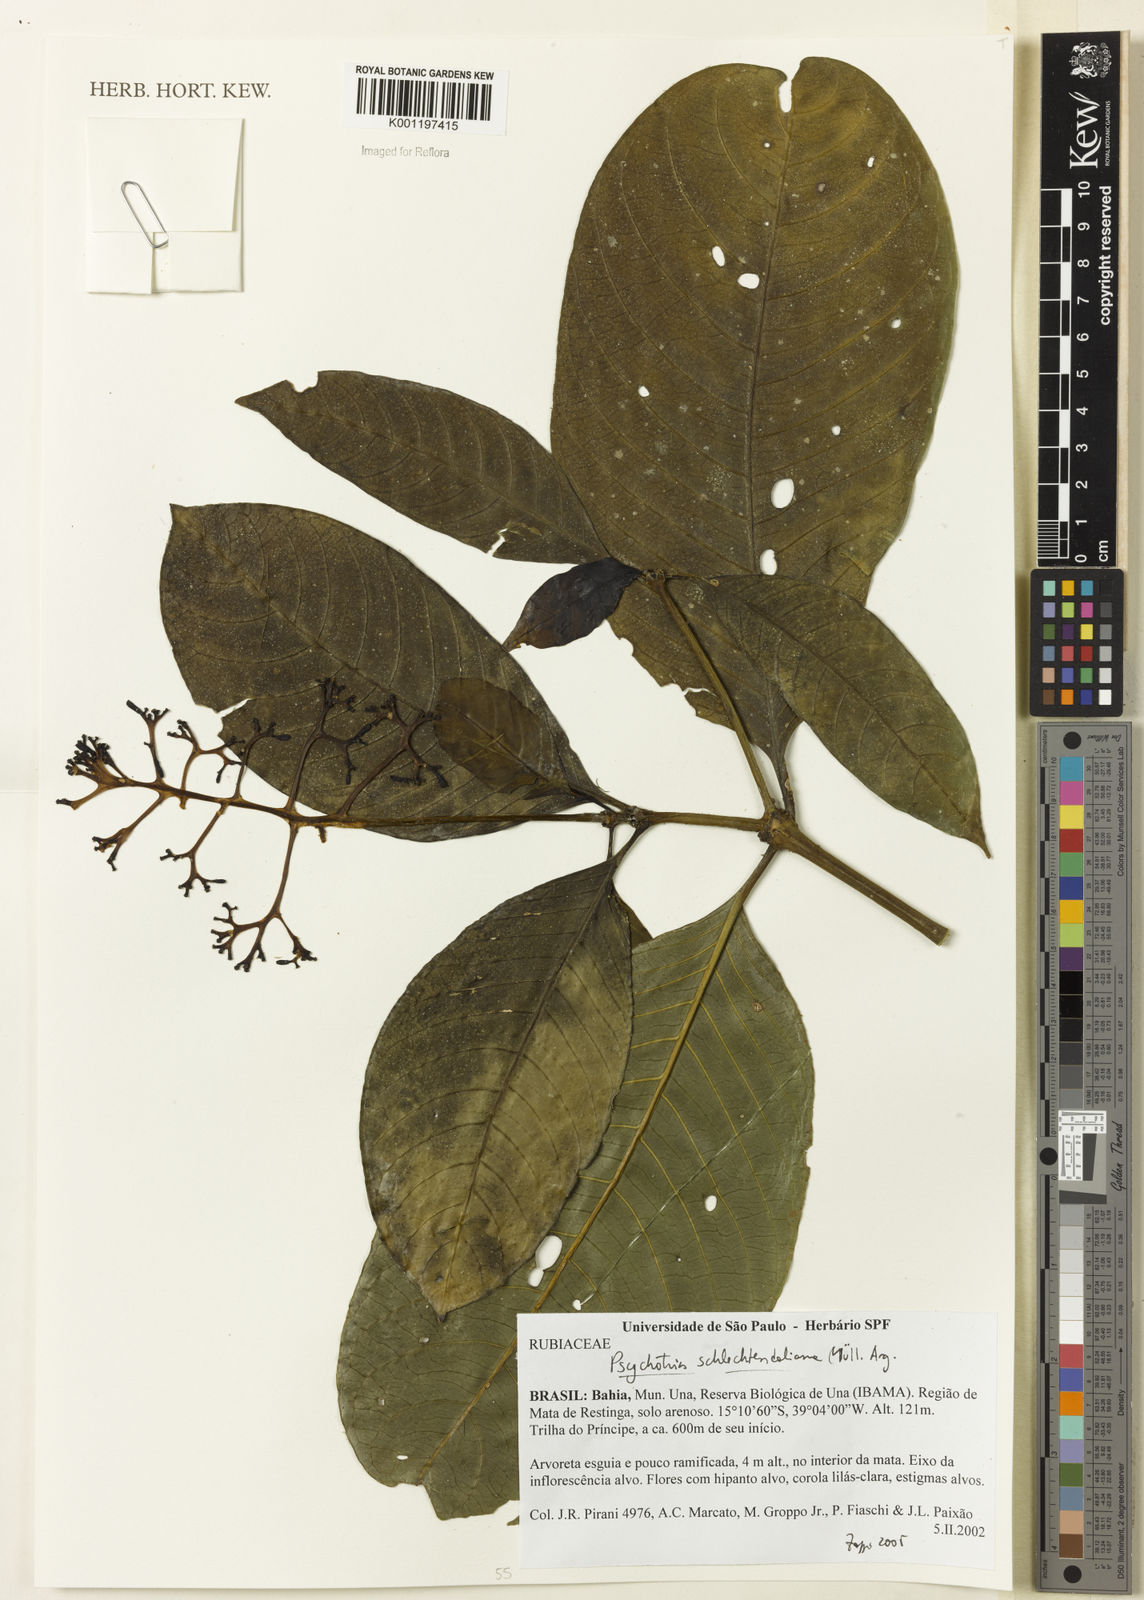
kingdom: Plantae
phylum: Tracheophyta
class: Magnoliopsida
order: Gentianales
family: Rubiaceae
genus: Psychotria
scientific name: Psychotria
